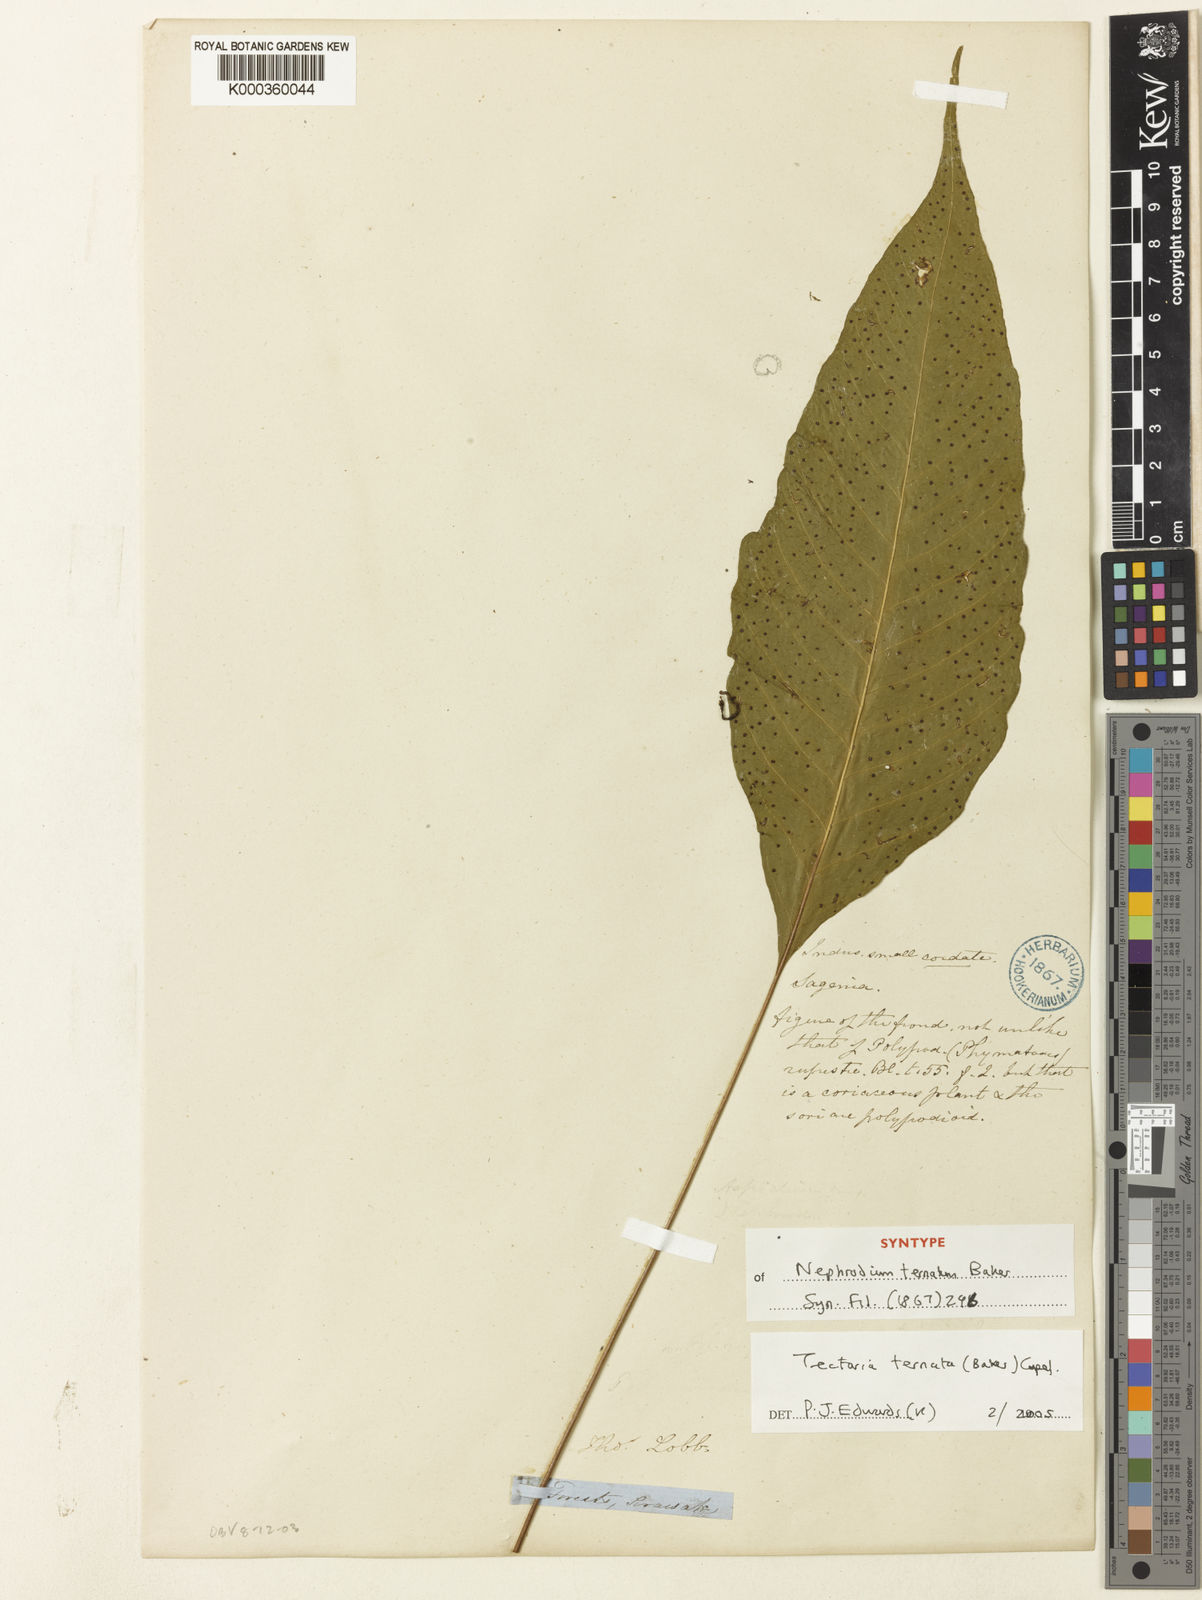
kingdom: Plantae
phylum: Tracheophyta
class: Polypodiopsida
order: Polypodiales
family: Tectariaceae
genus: Polydictyum
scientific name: Polydictyum ternatum
